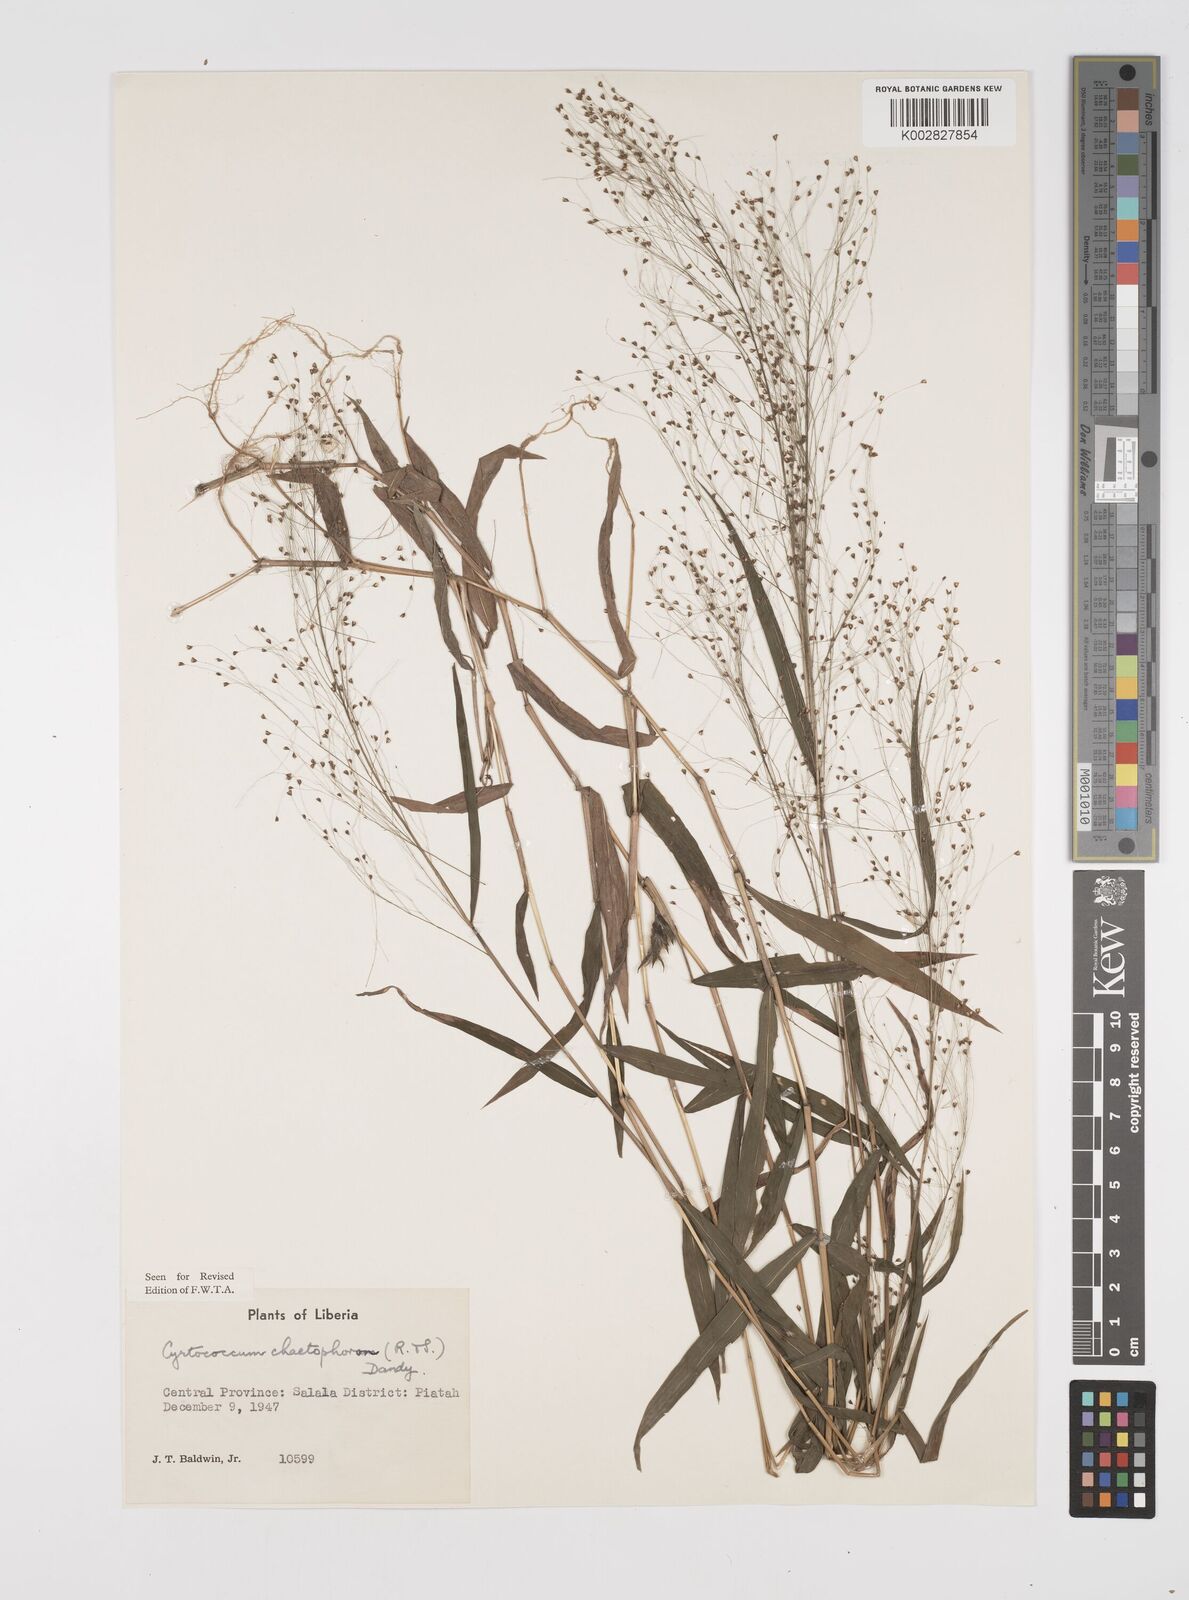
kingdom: Plantae
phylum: Tracheophyta
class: Liliopsida
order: Poales
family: Poaceae
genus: Cyrtococcum
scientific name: Cyrtococcum chaetophoron
